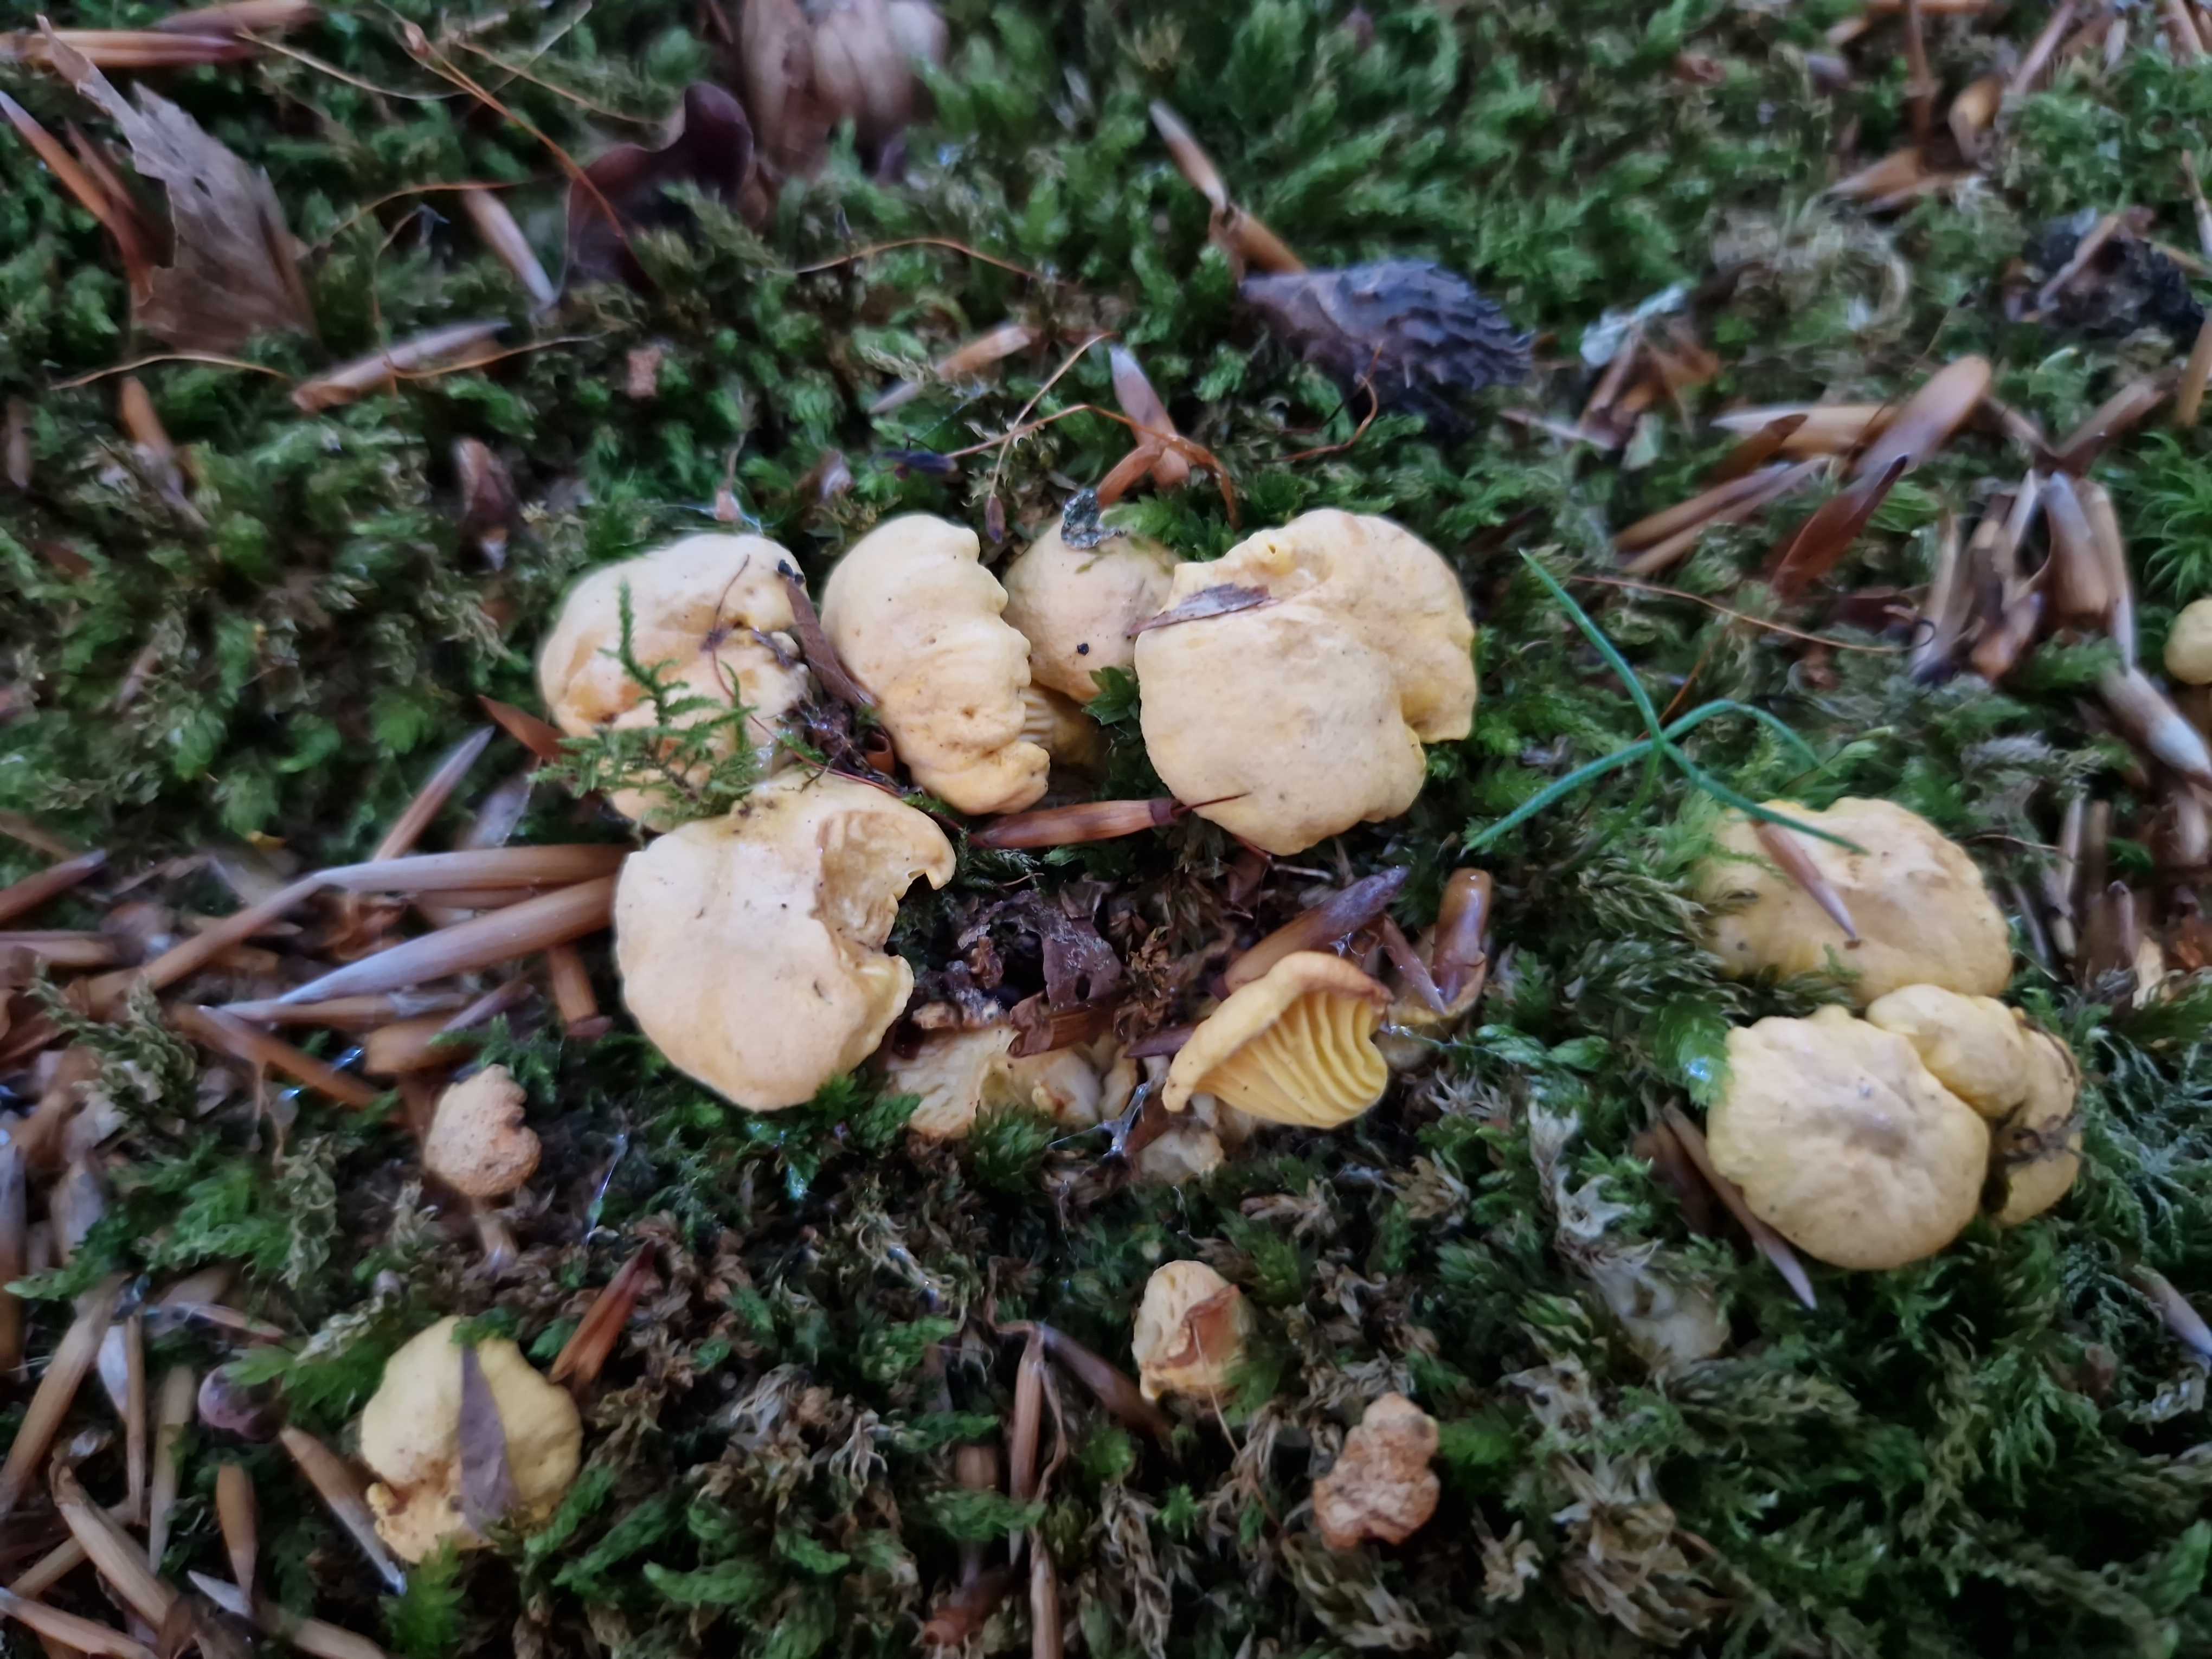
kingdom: Fungi
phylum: Basidiomycota
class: Agaricomycetes
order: Cantharellales
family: Hydnaceae
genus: Cantharellus
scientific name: Cantharellus cibarius
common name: almindelig kantarel
